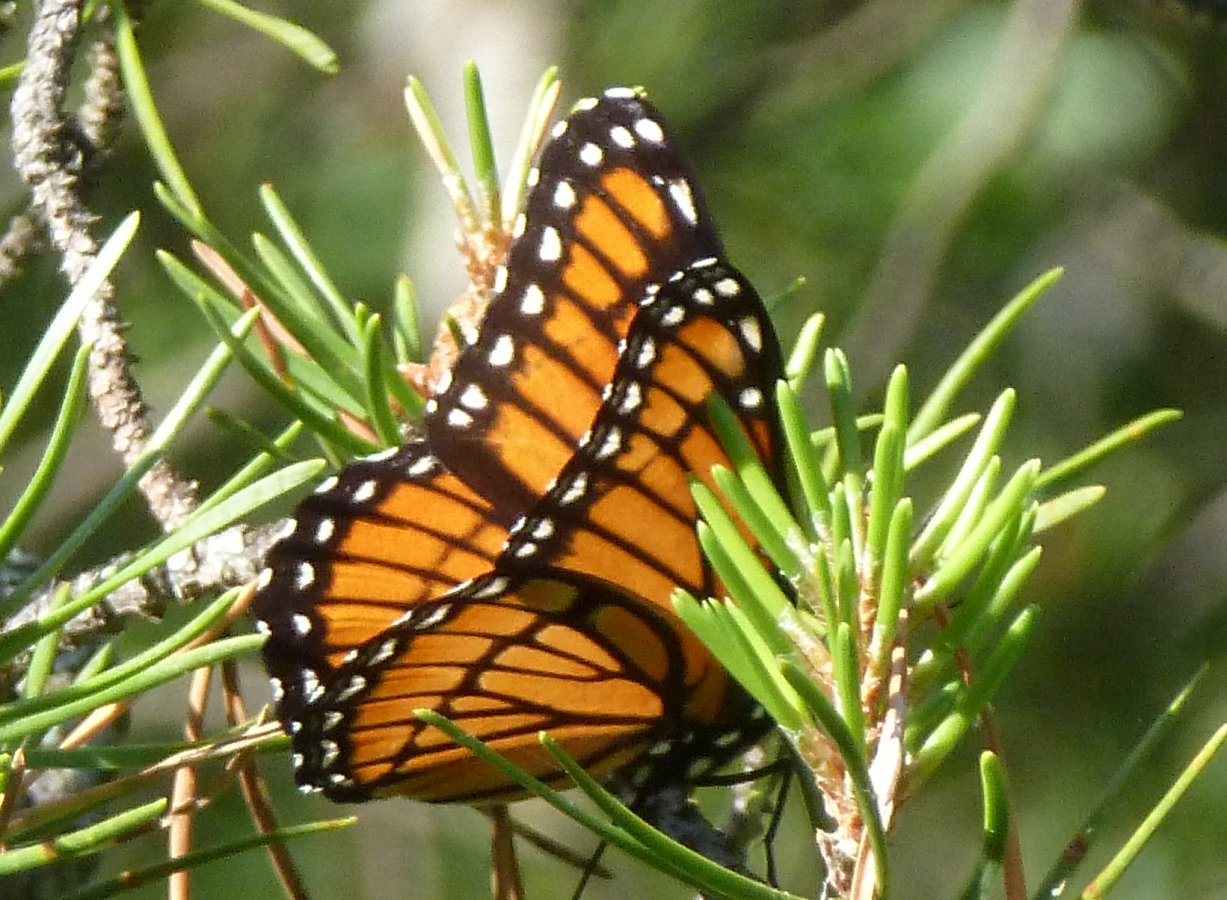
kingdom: Animalia
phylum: Arthropoda
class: Insecta
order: Lepidoptera
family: Nymphalidae
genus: Limenitis
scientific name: Limenitis archippus
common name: Viceroy
